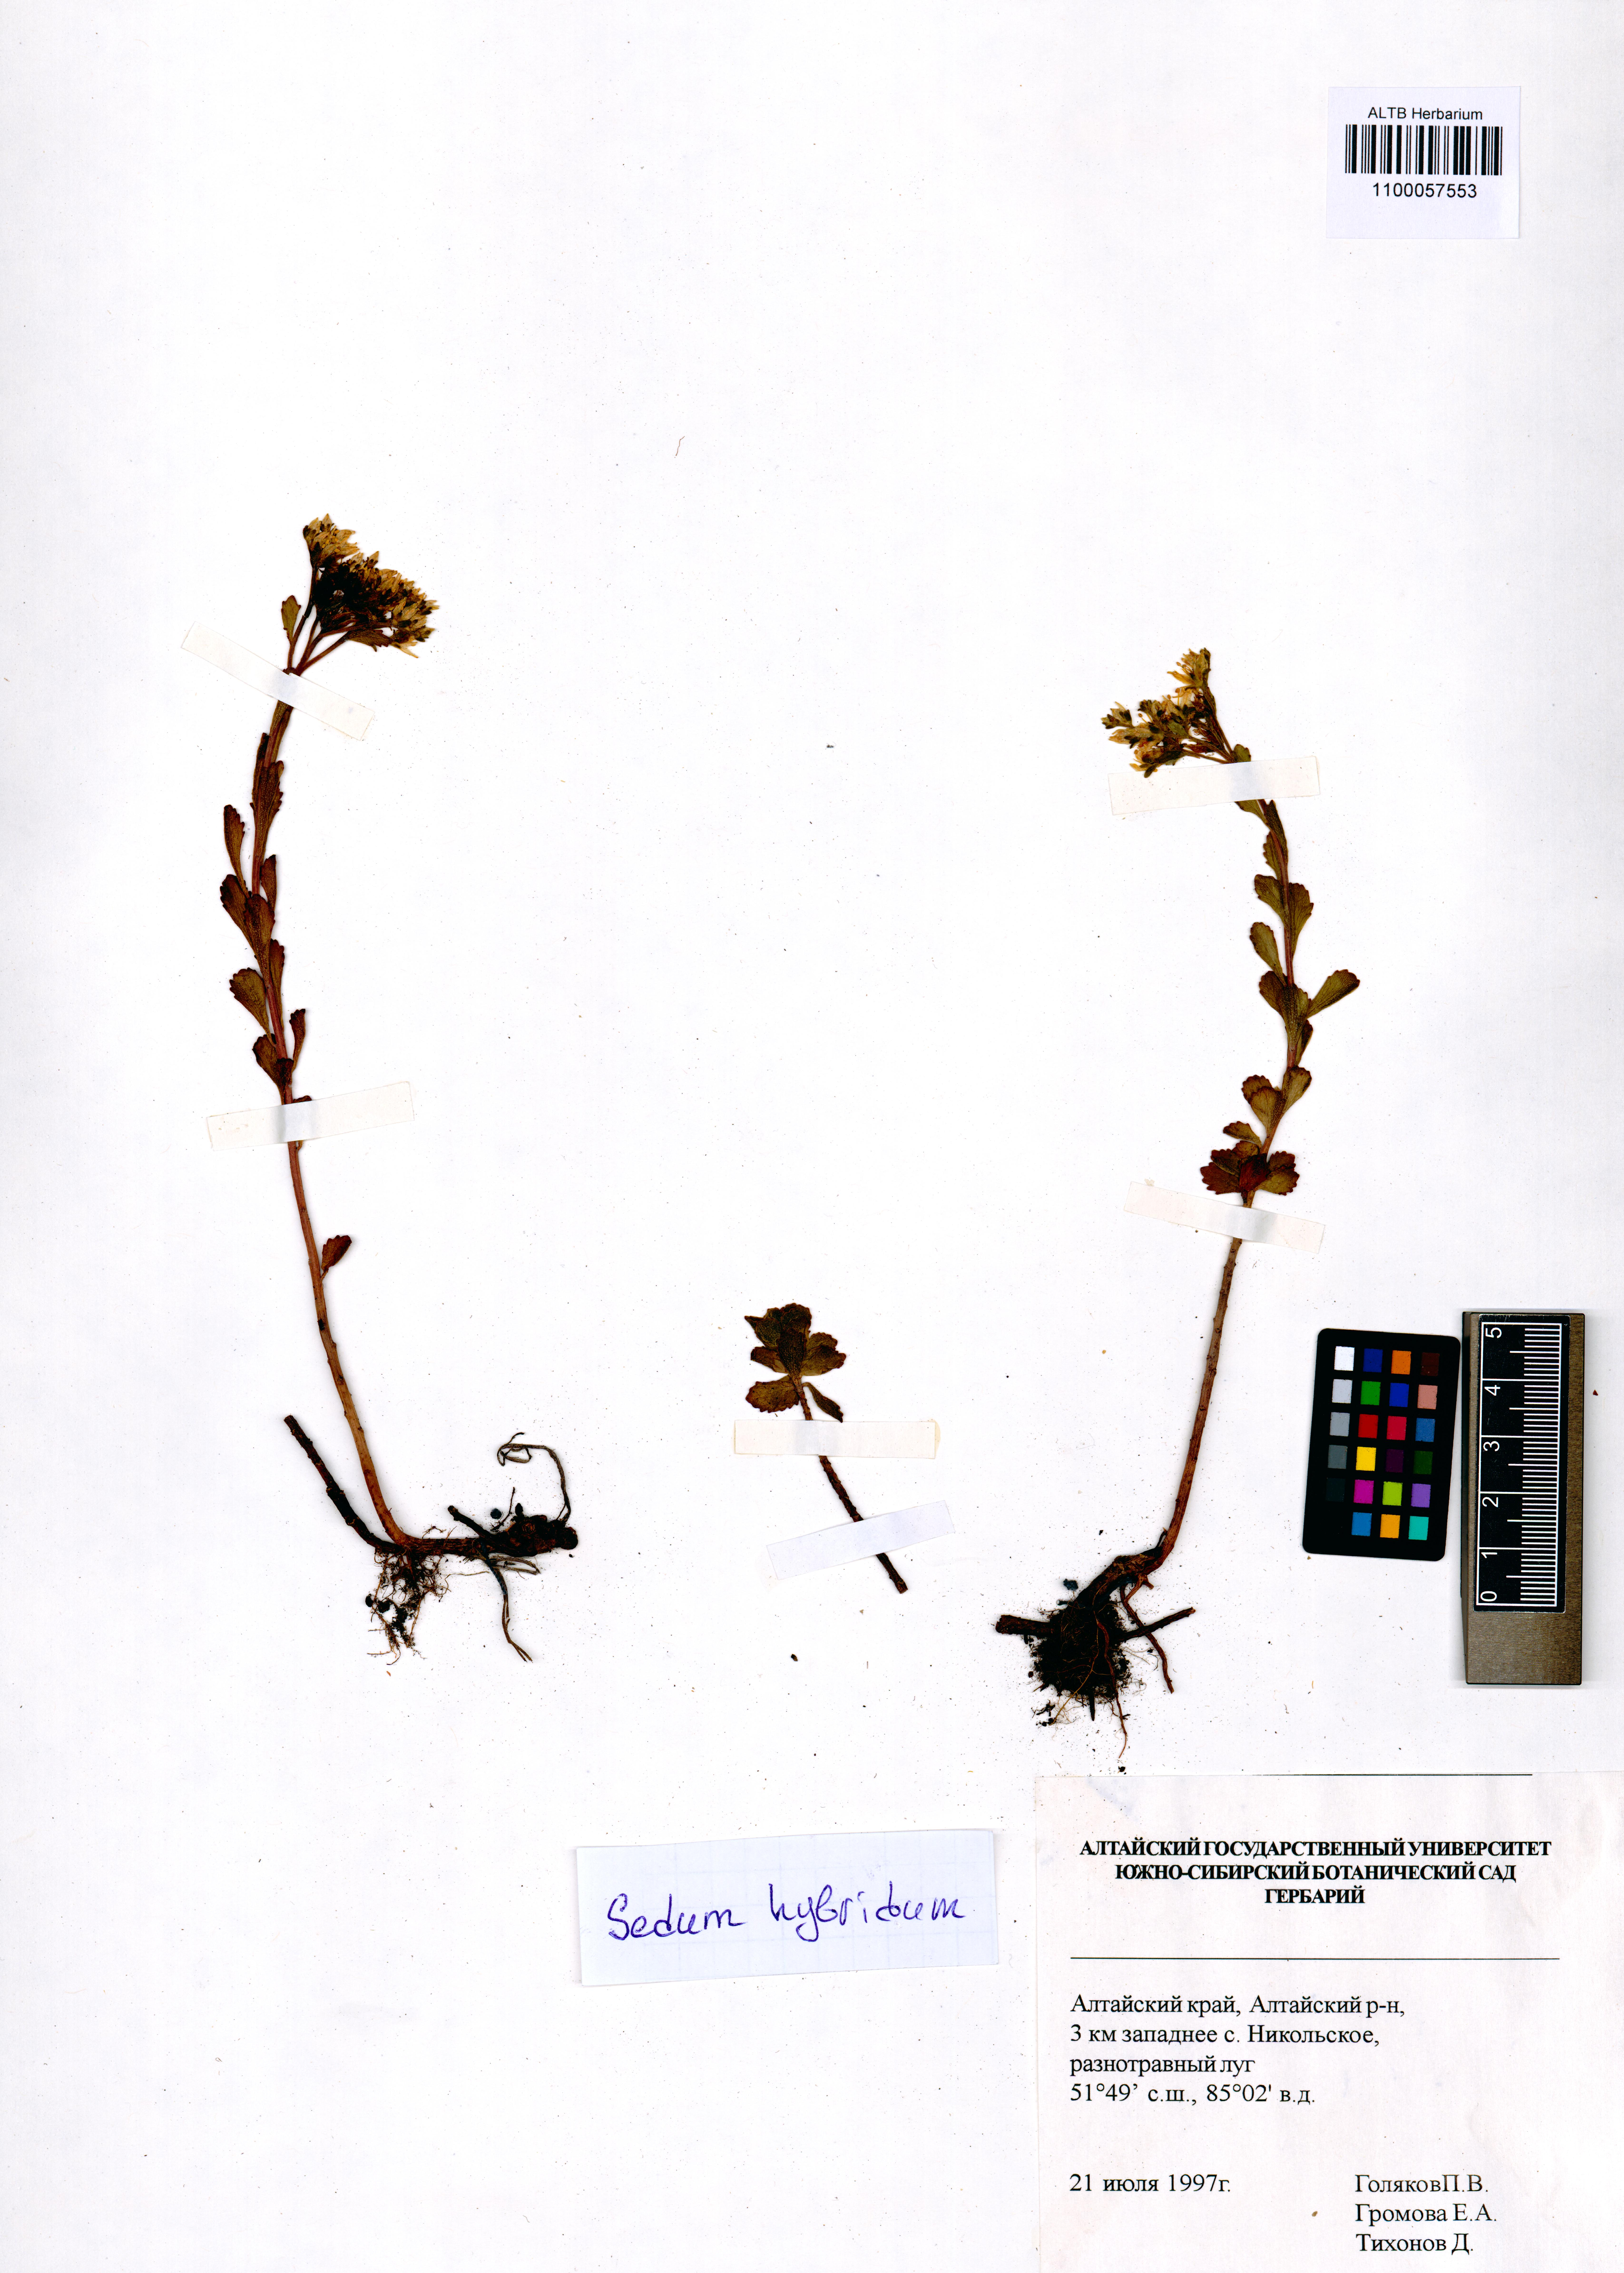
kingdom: Plantae
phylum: Tracheophyta
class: Magnoliopsida
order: Saxifragales
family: Crassulaceae
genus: Phedimus
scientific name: Phedimus hybridus
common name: Hybrid stonecrop
